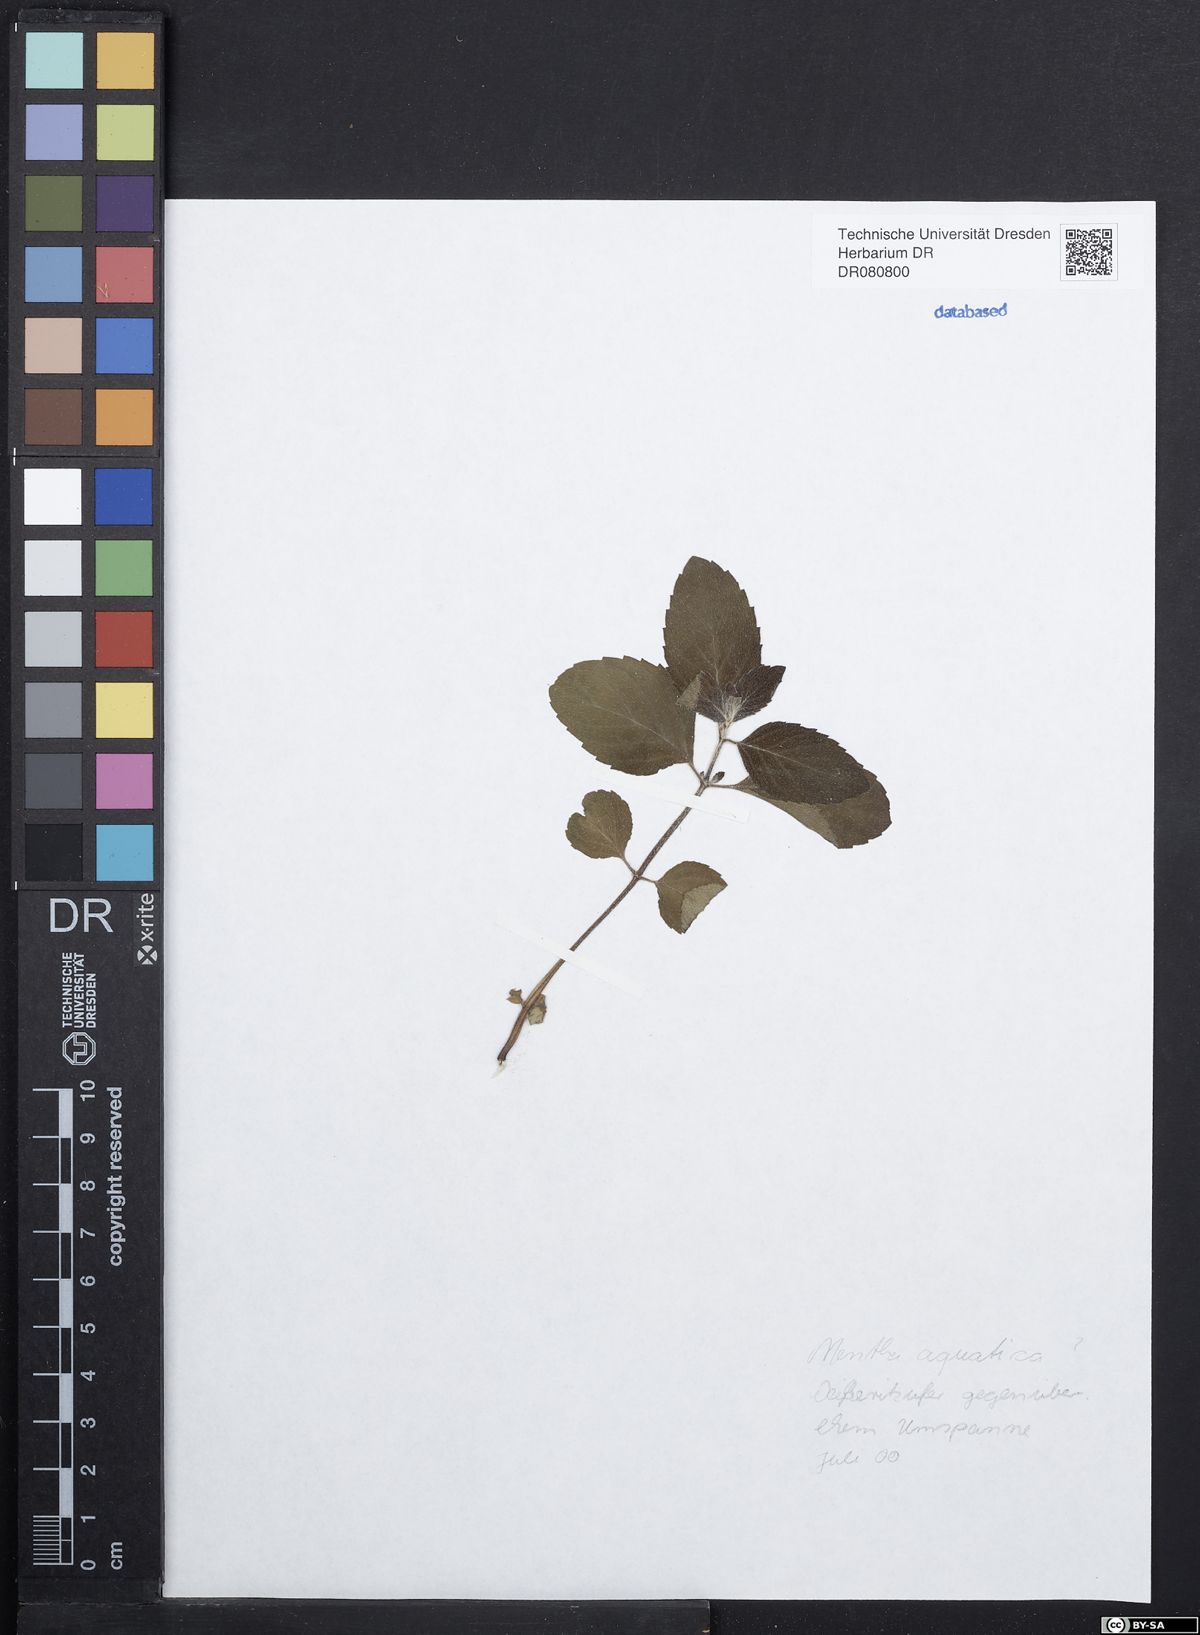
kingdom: Plantae
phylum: Tracheophyta
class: Magnoliopsida
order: Lamiales
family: Lamiaceae
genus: Mentha
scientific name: Mentha aquatica
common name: Water mint
